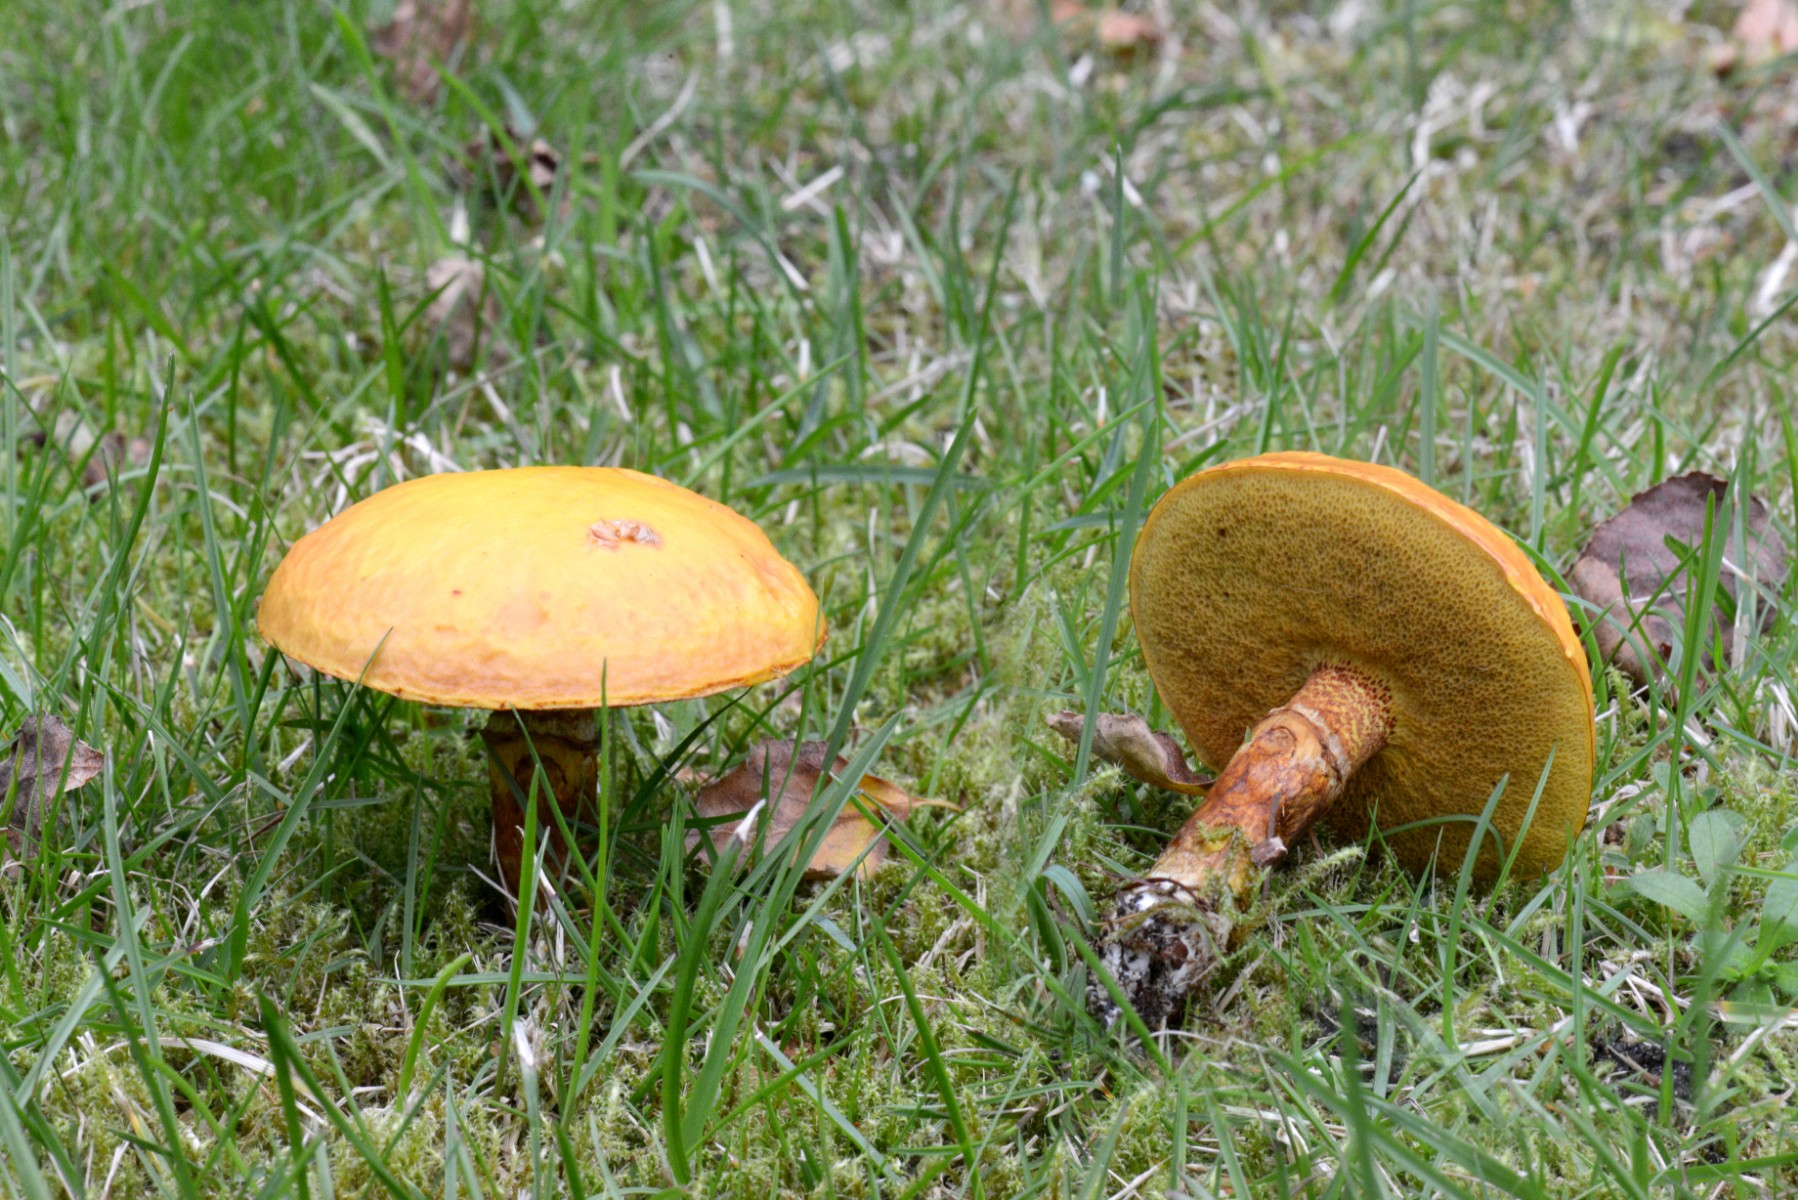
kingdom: Fungi
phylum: Basidiomycota
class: Agaricomycetes
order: Boletales
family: Suillaceae
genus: Suillus
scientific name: Suillus grevillei
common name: lærke-slimrørhat
